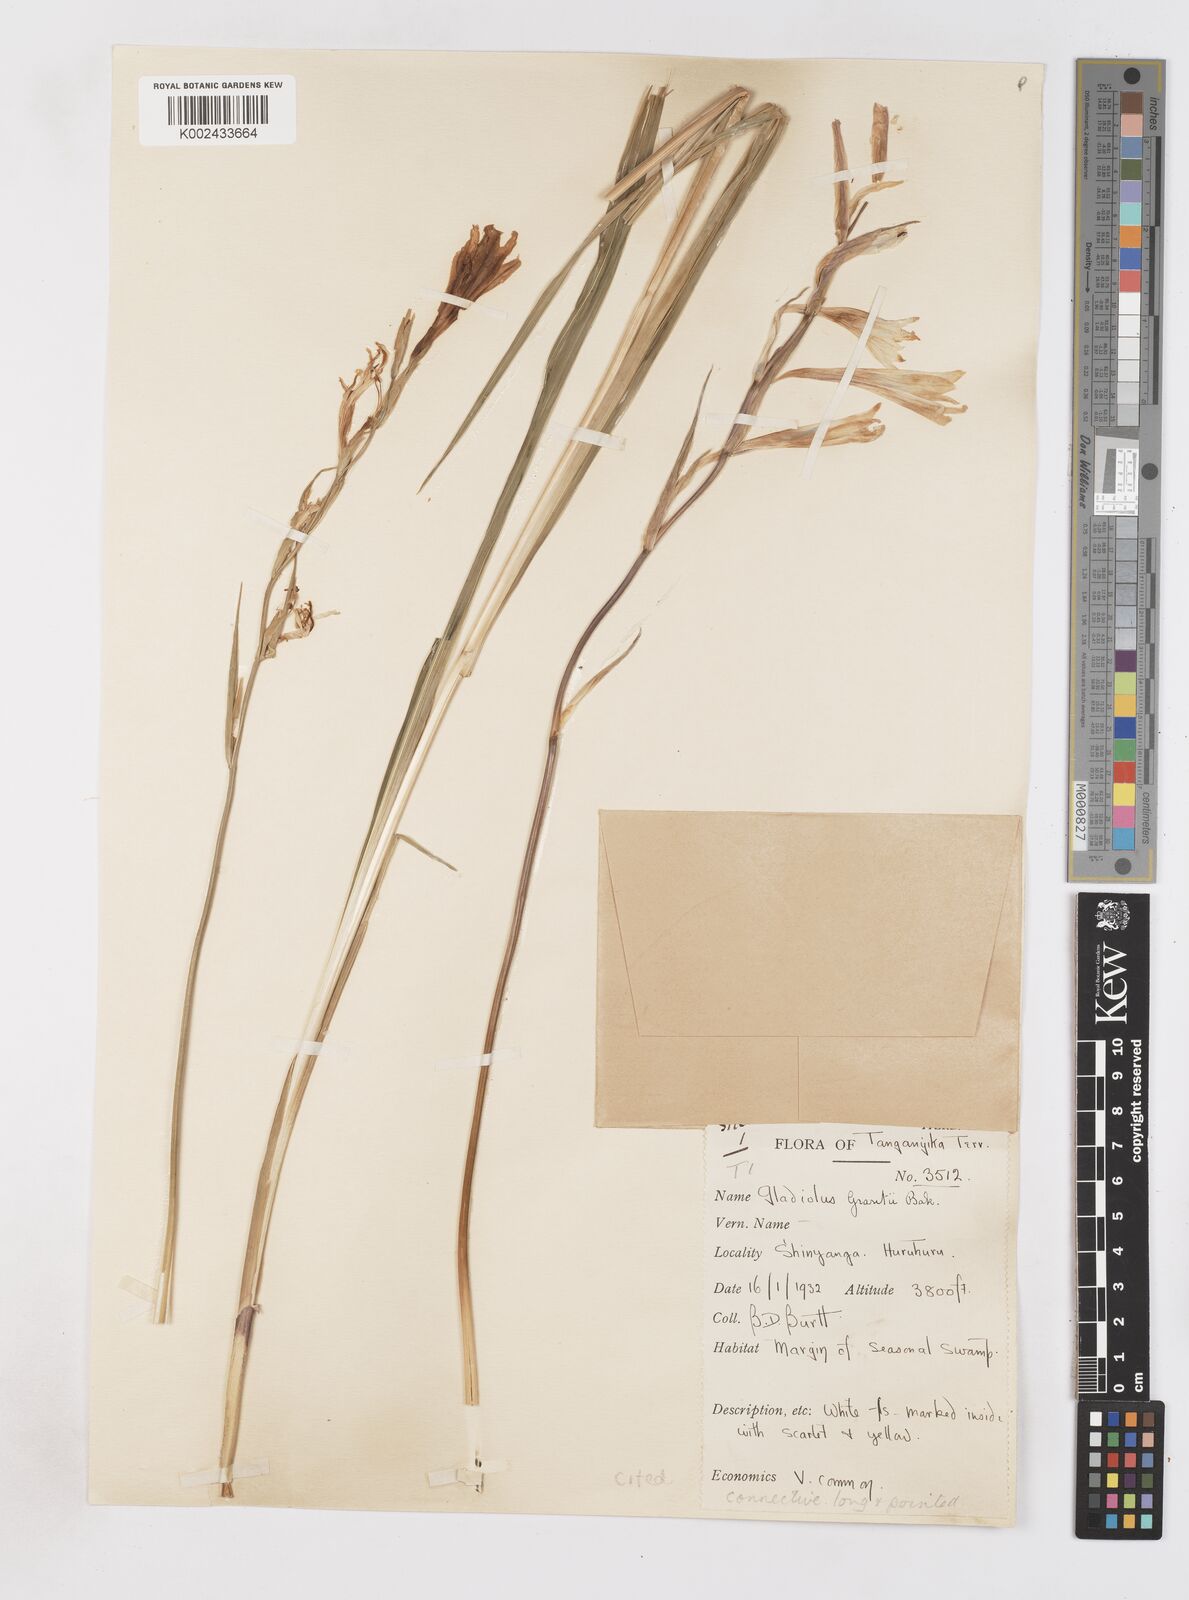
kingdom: Plantae
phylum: Tracheophyta
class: Liliopsida
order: Asparagales
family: Iridaceae
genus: Gladiolus
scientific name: Gladiolus grantii
